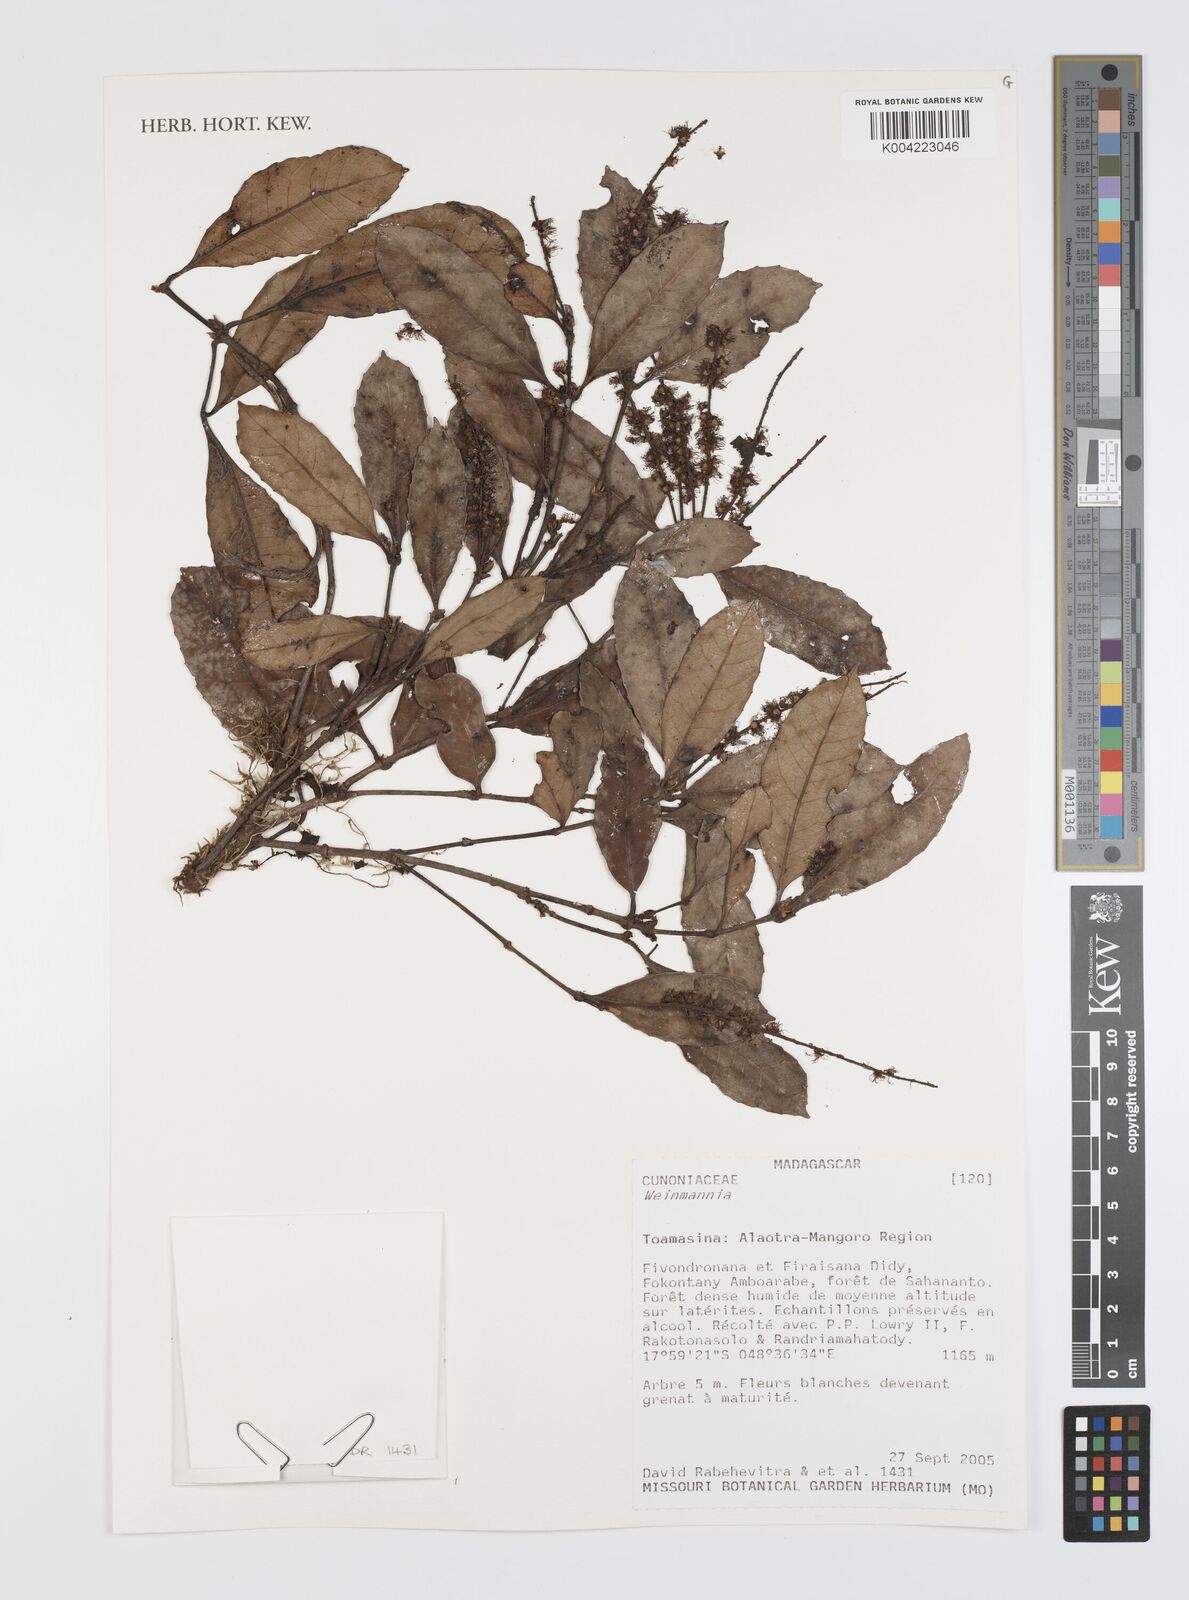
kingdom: Plantae
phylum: Tracheophyta
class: Magnoliopsida
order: Oxalidales
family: Cunoniaceae
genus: Weinmannia
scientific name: Weinmannia
